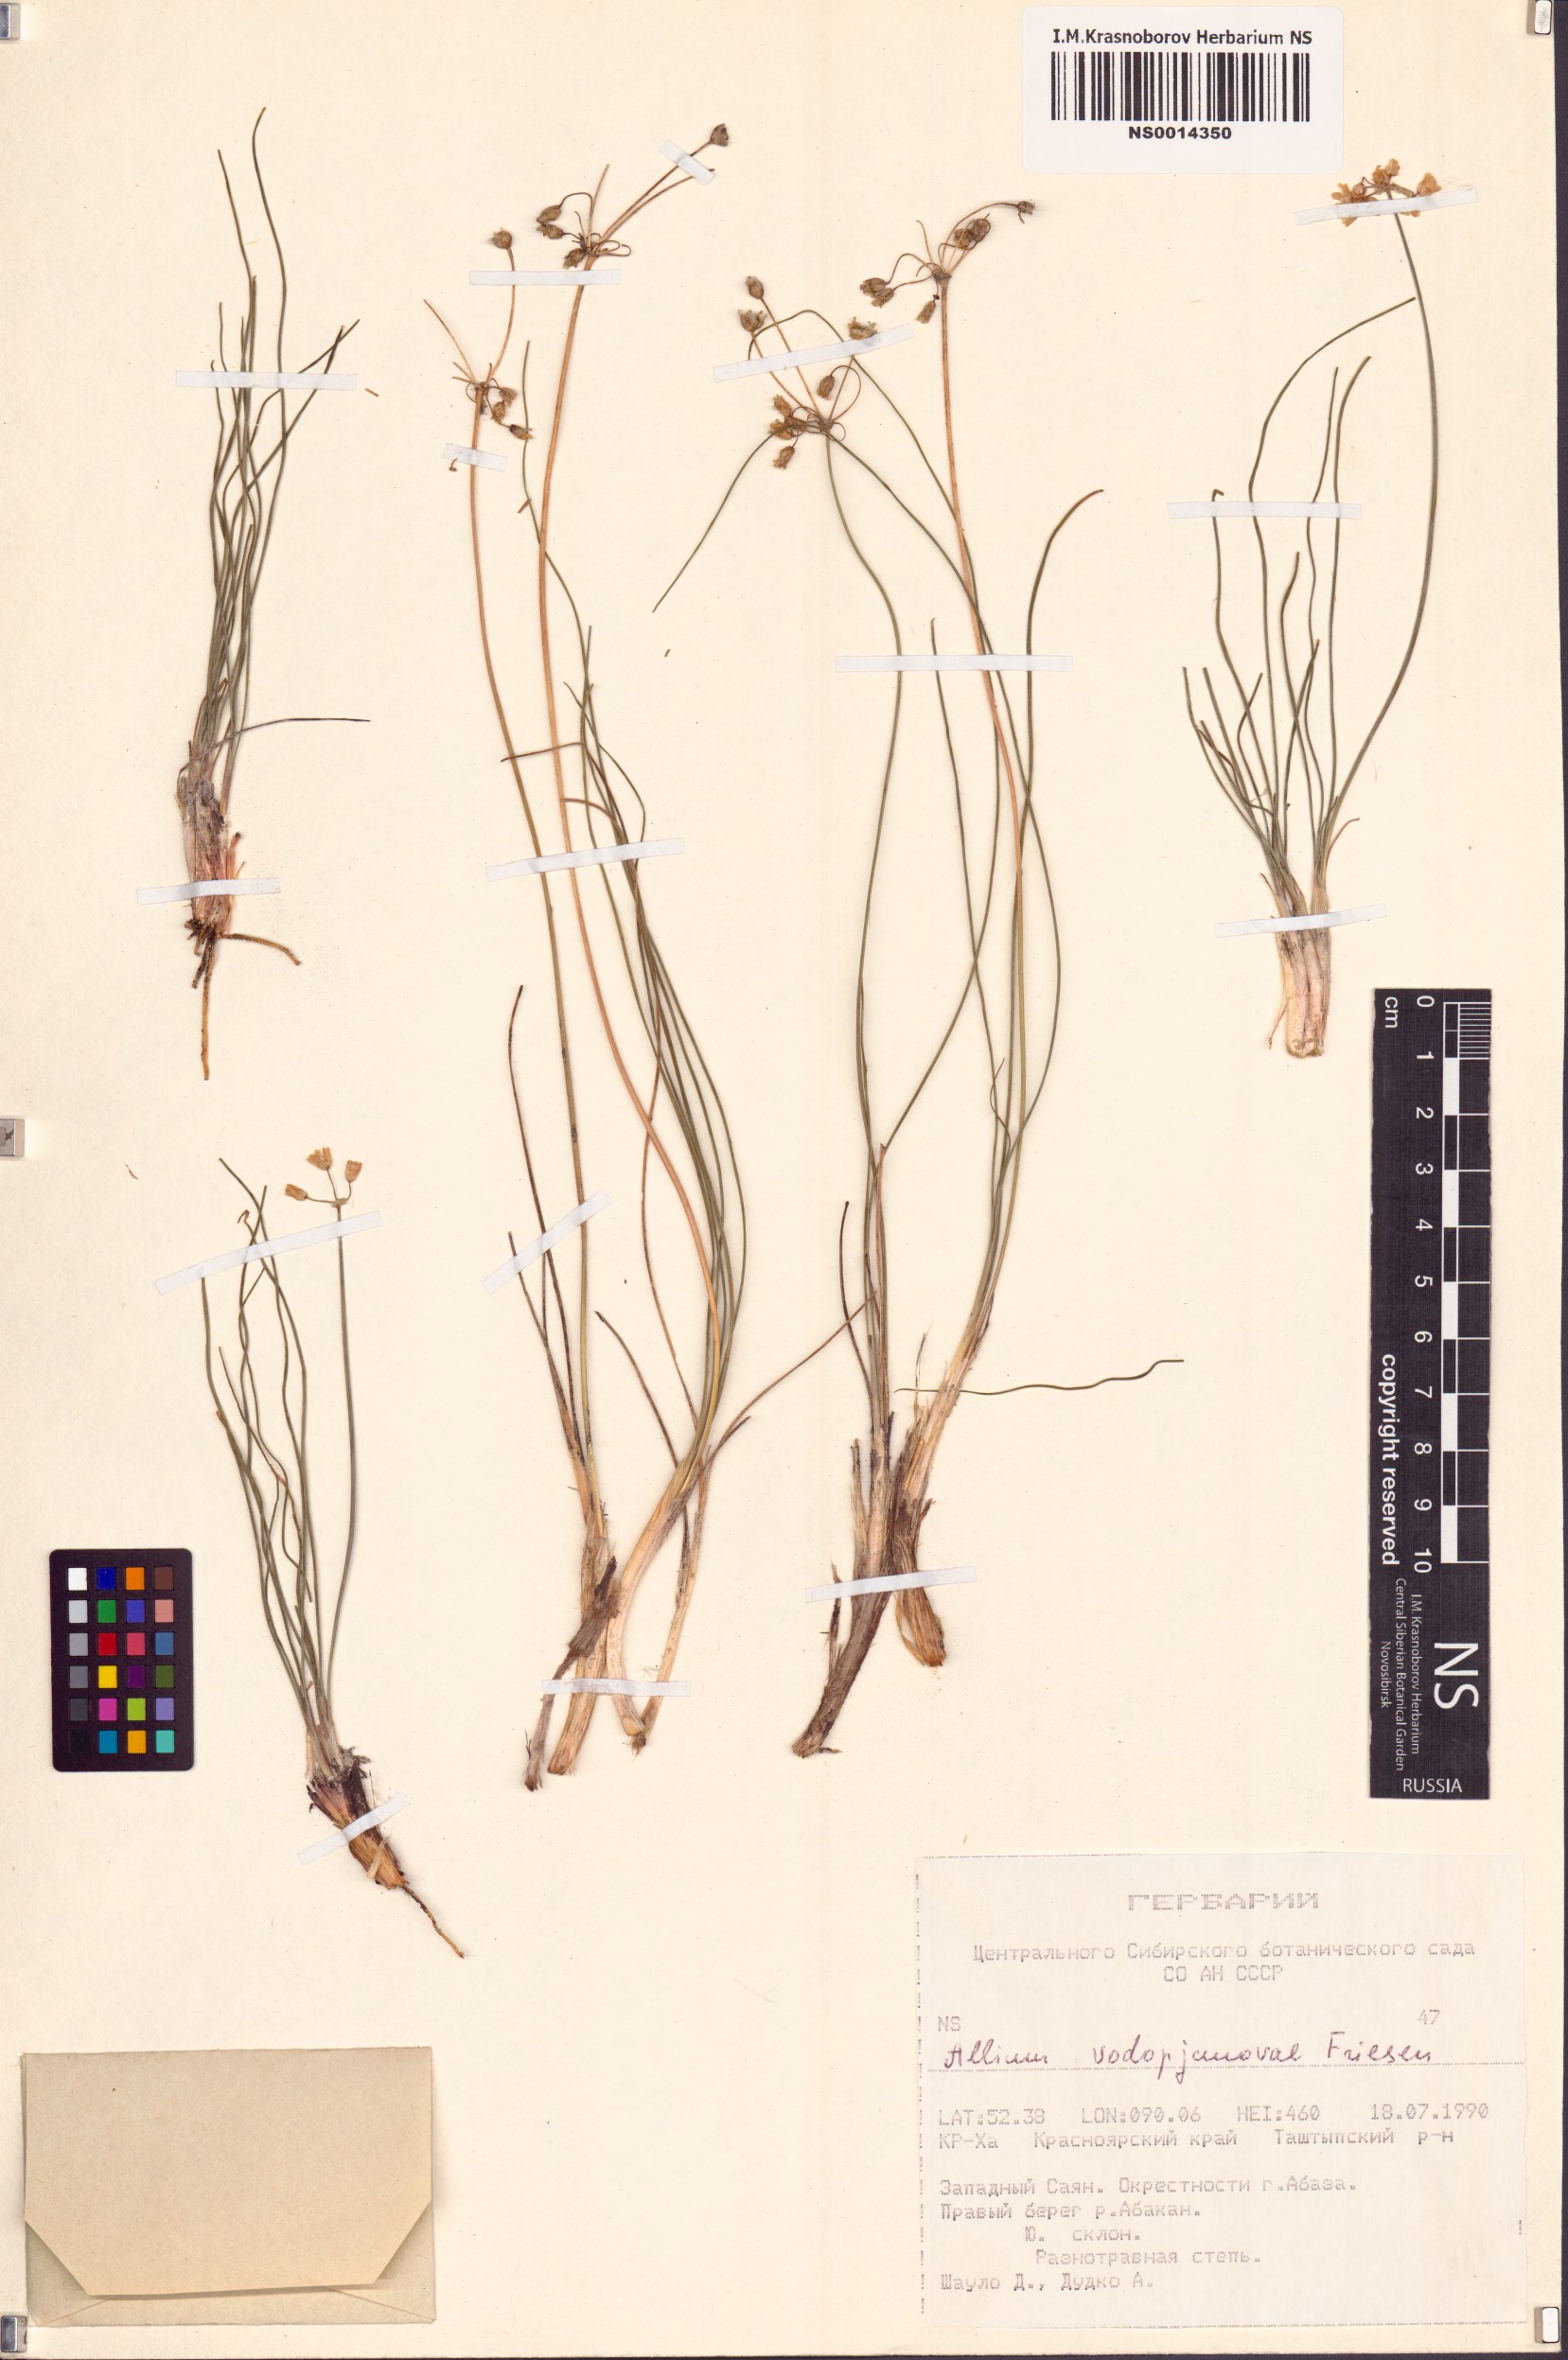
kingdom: Plantae
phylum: Tracheophyta
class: Liliopsida
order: Asparagales
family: Amaryllidaceae
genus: Allium
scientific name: Allium vodopjanovae
